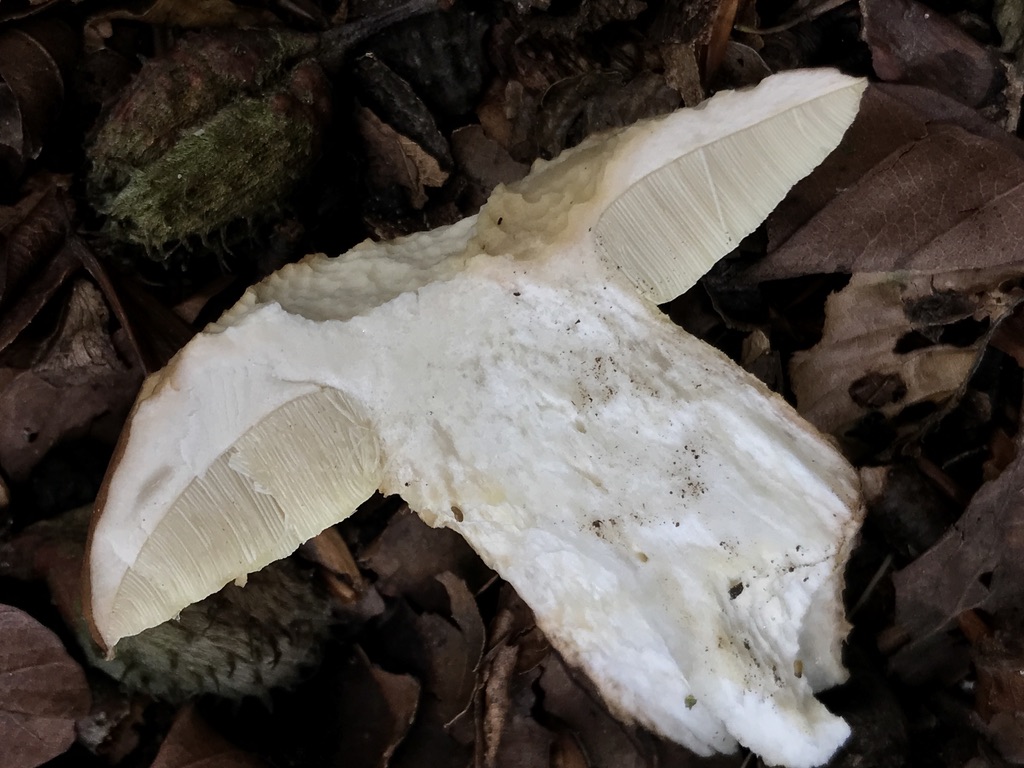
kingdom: Fungi
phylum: Basidiomycota
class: Agaricomycetes
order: Boletales
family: Boletaceae
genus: Boletus
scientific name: Boletus reticulatus
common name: sommer-rørhat
